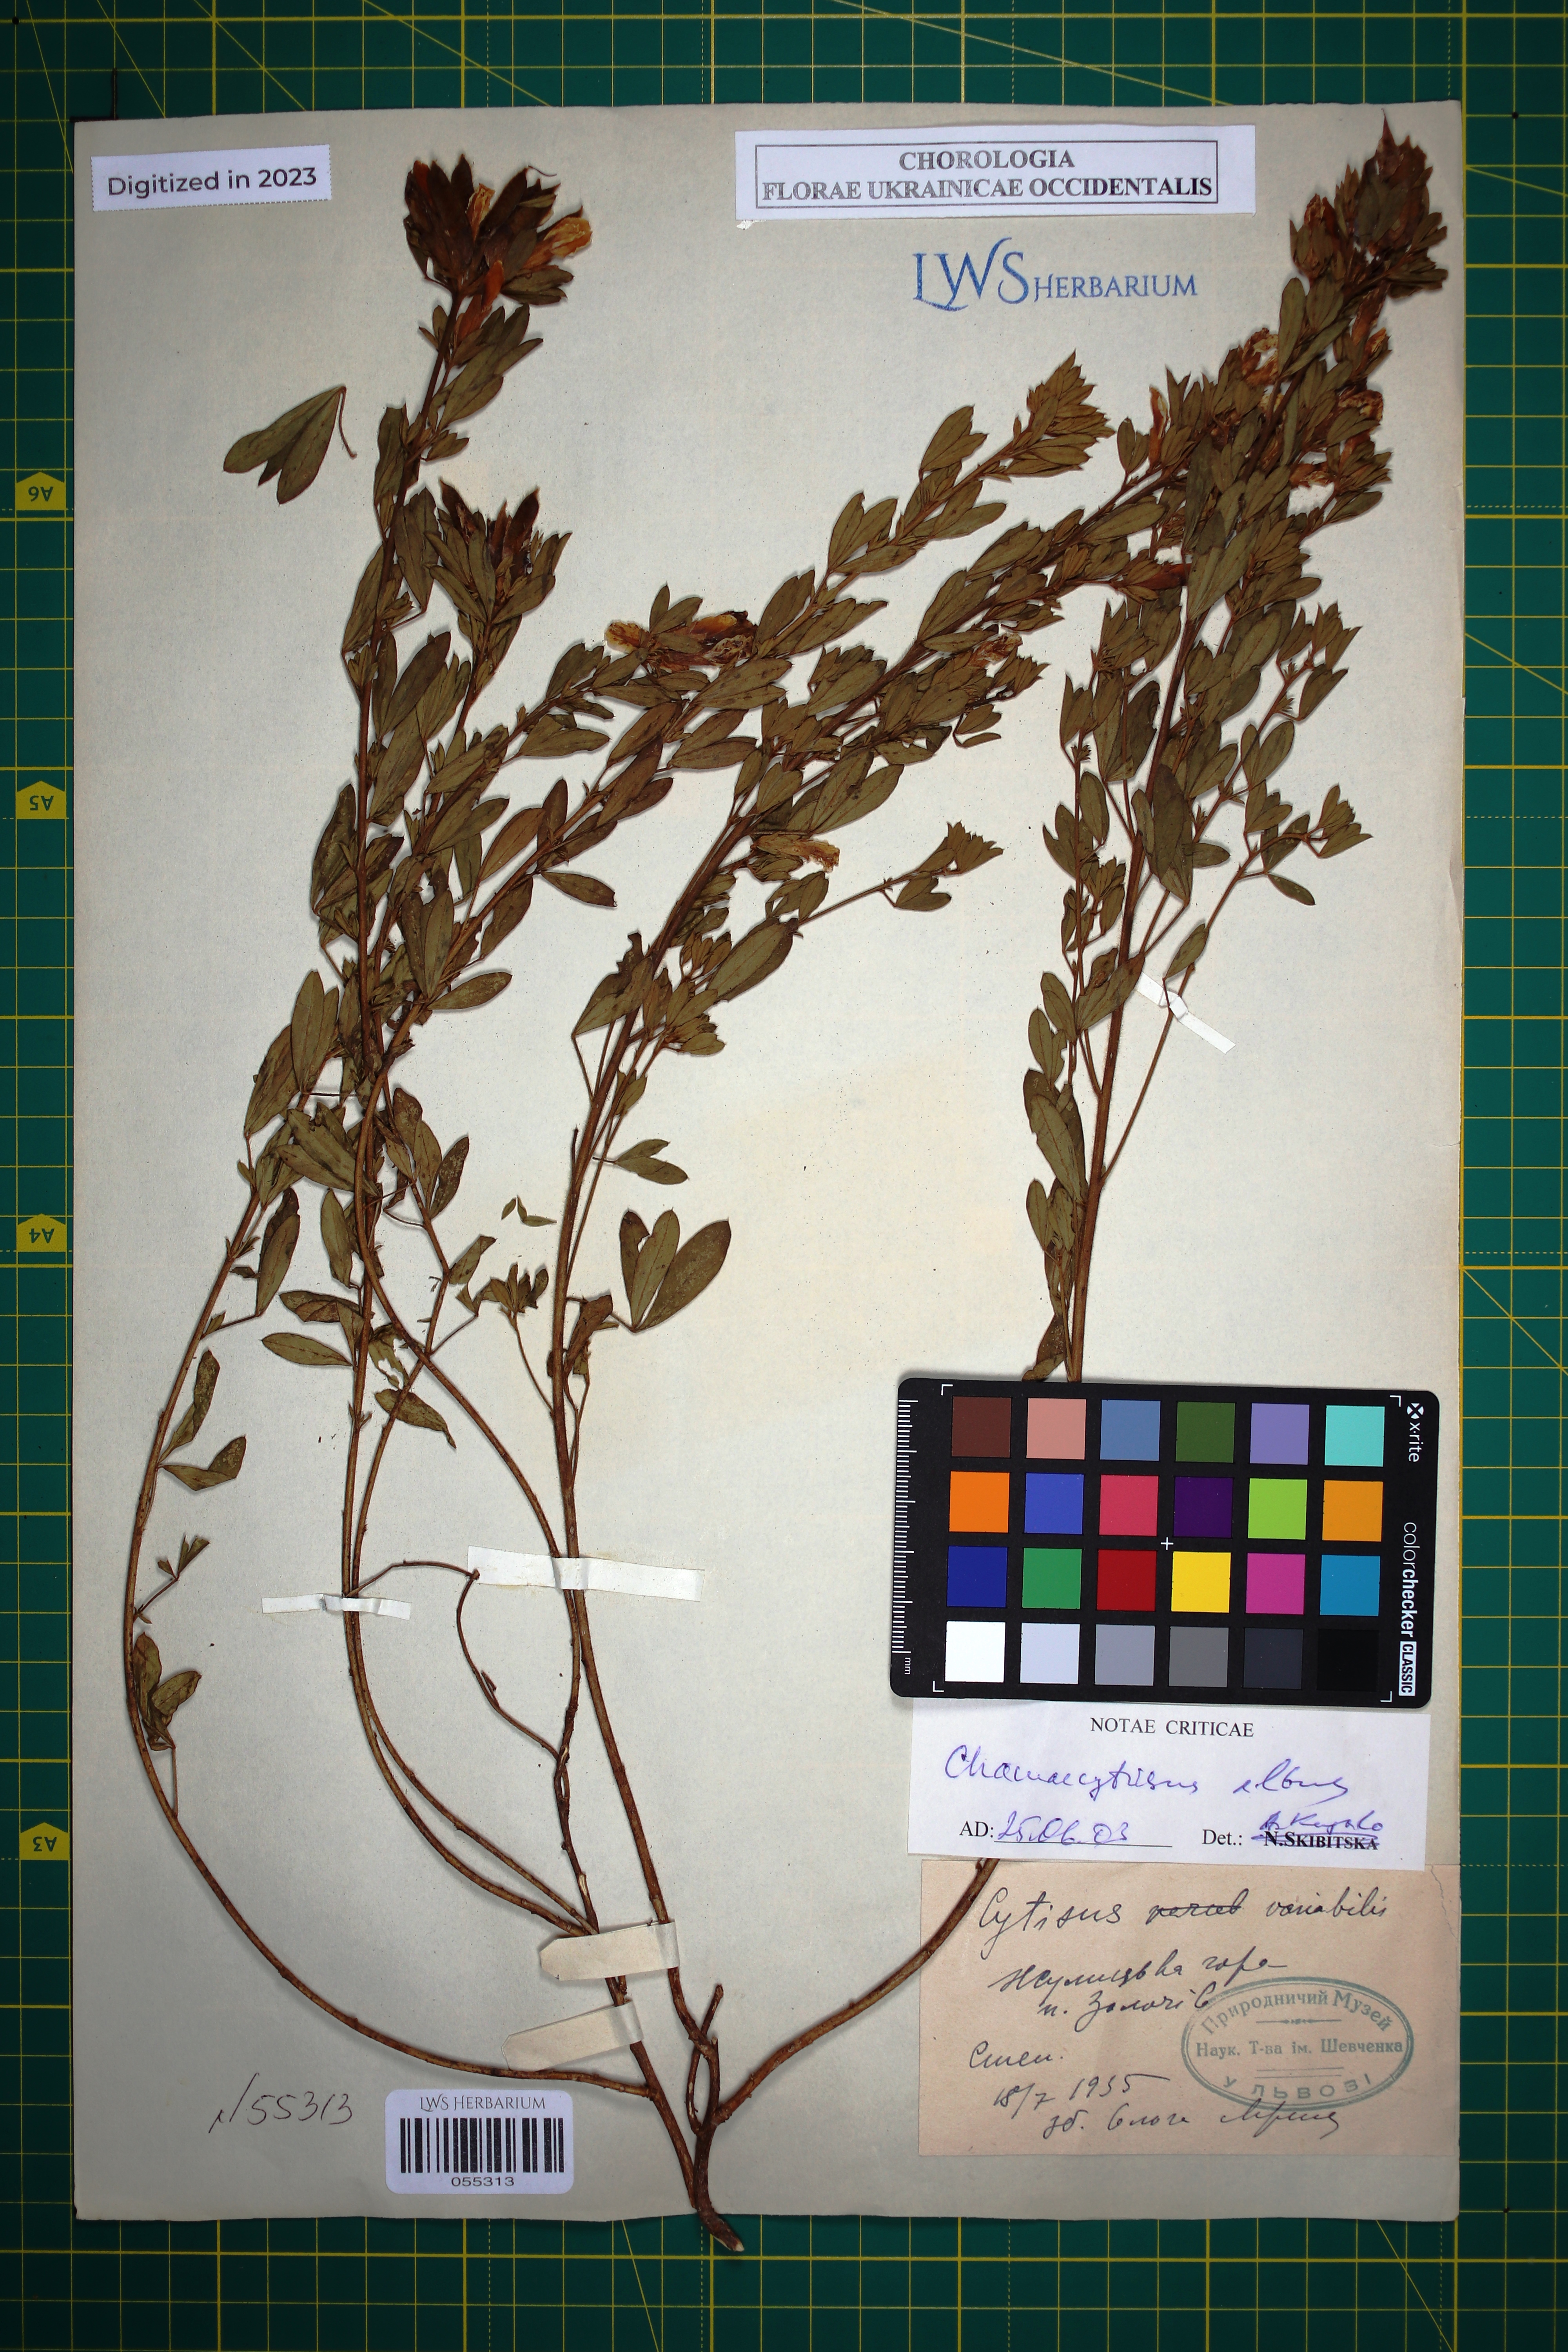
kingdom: Plantae
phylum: Tracheophyta
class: Magnoliopsida
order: Fabales
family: Fabaceae
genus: Chamaecytisus
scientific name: Chamaecytisus albus
